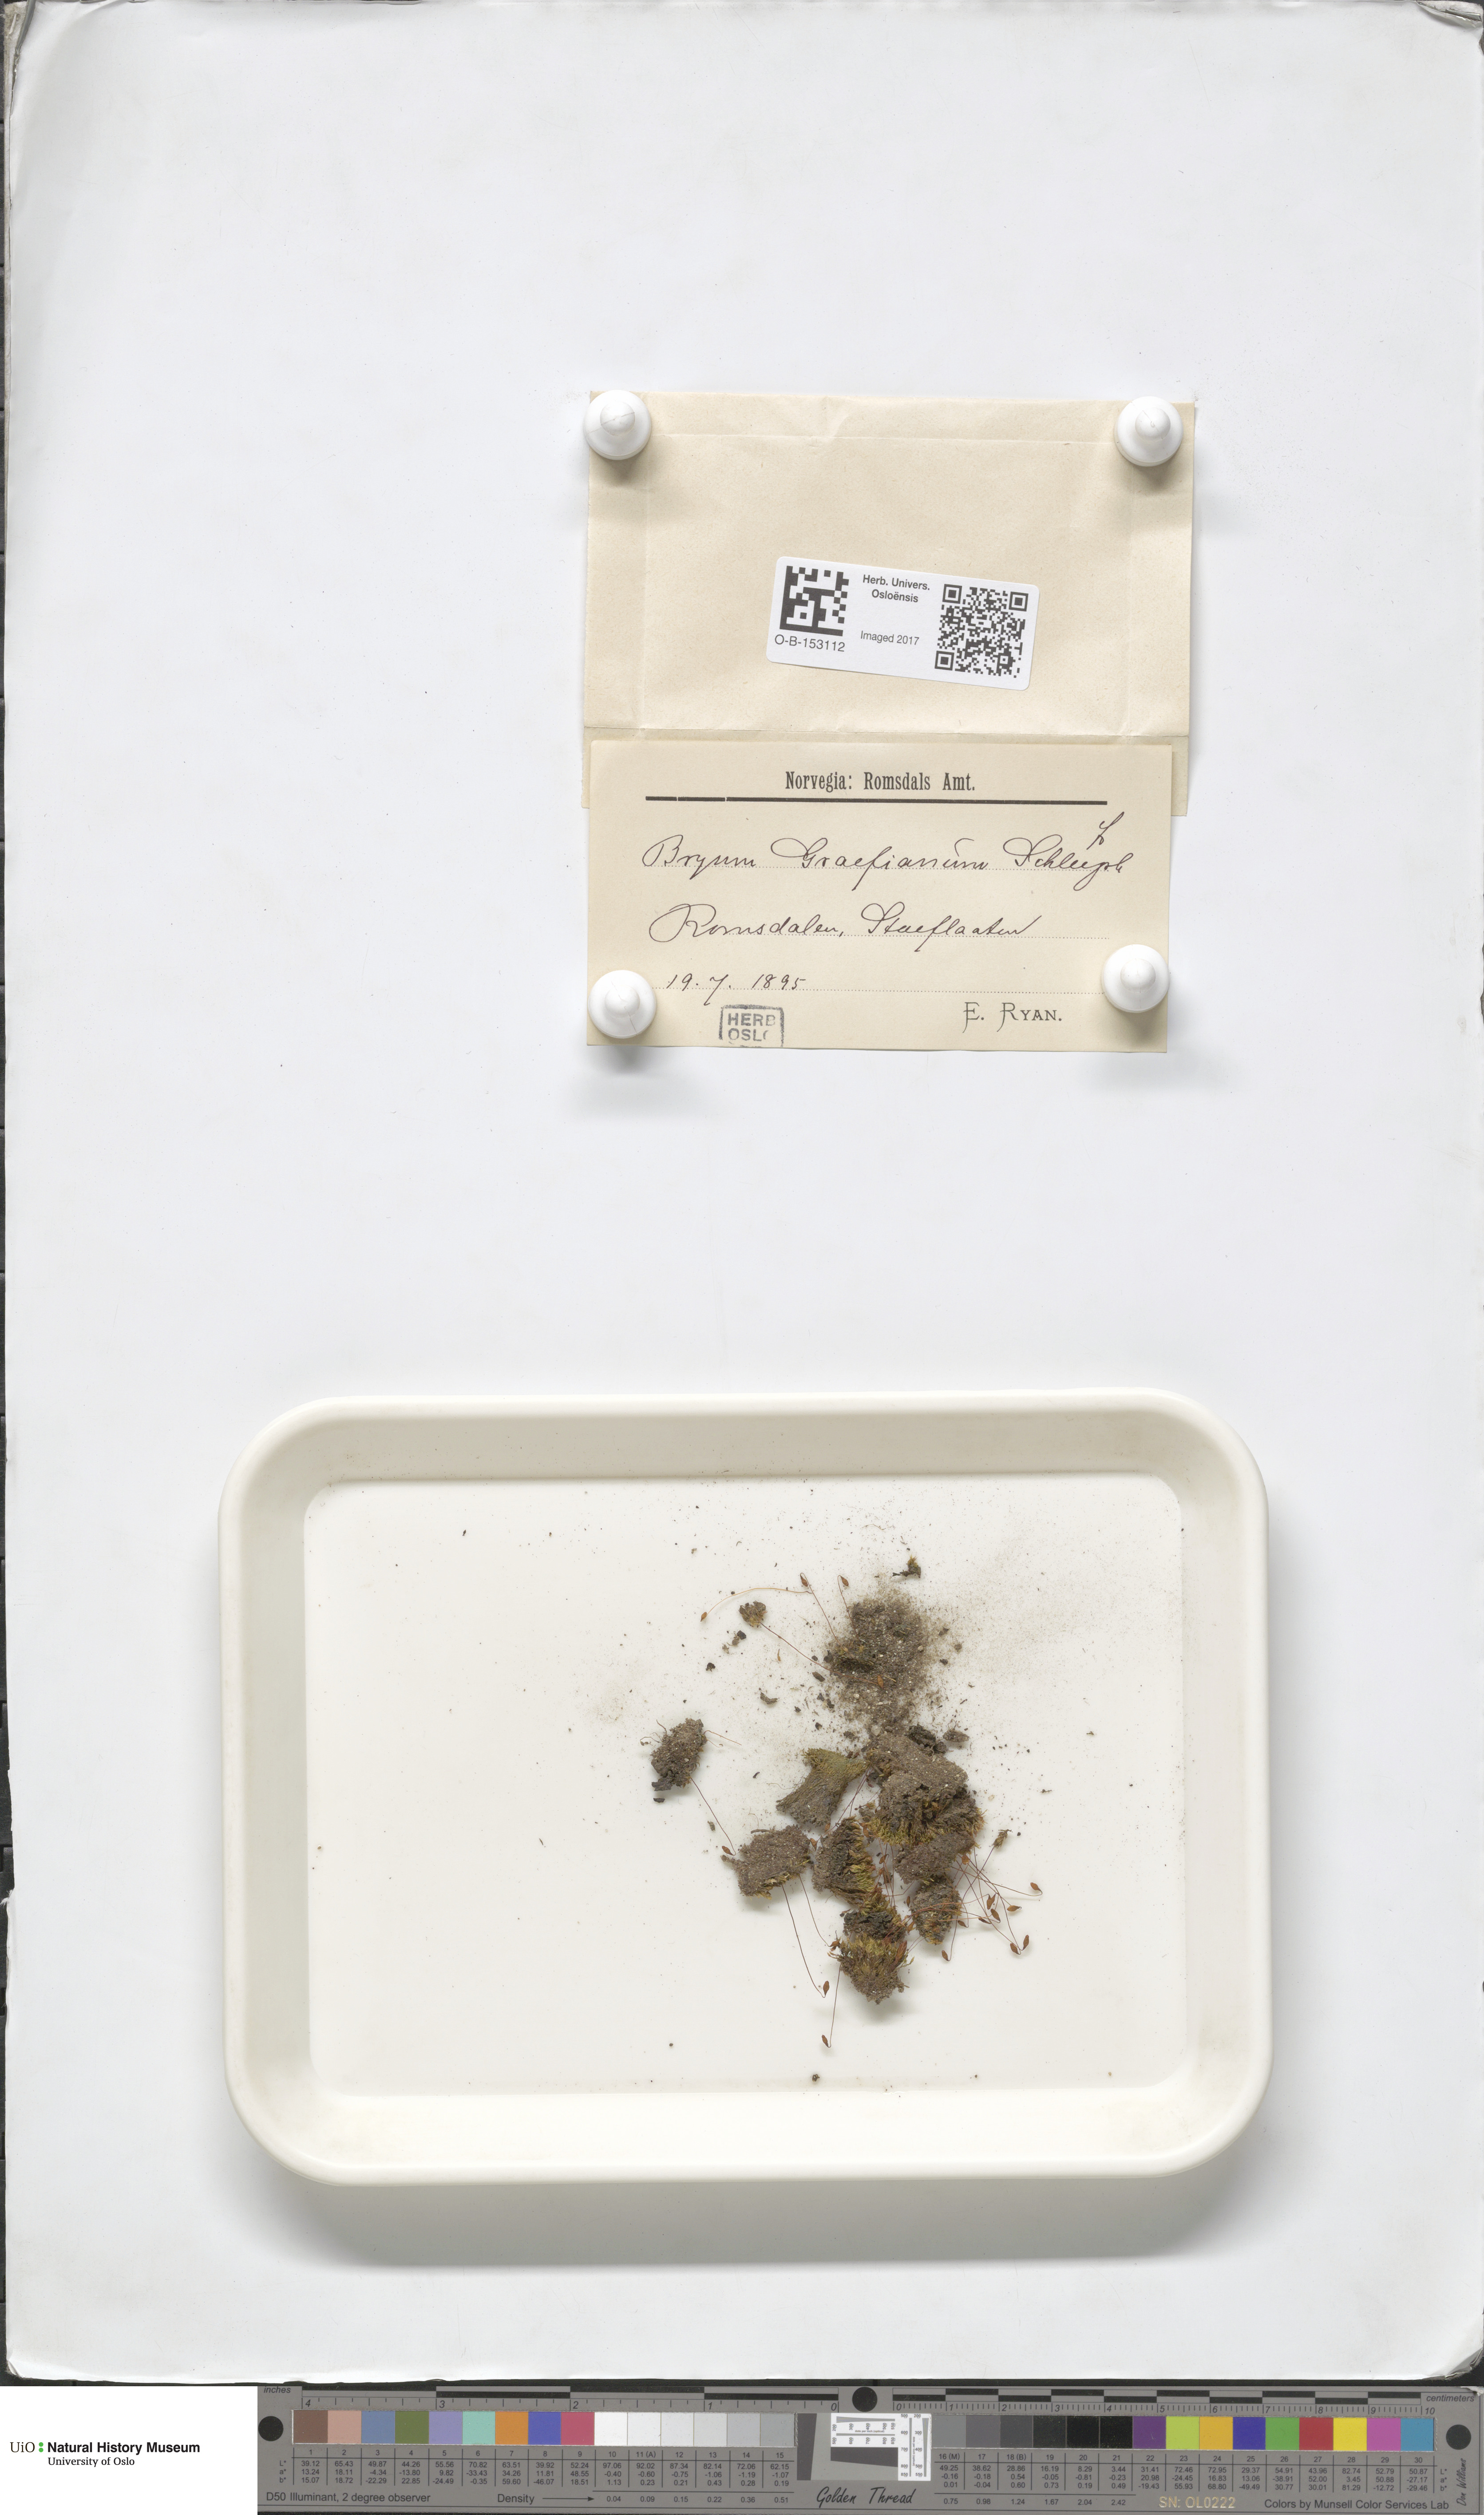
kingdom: Plantae
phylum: Bryophyta
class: Bryopsida
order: Bryales
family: Bryaceae
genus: Ptychostomum
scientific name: Ptychostomum inclinatum
